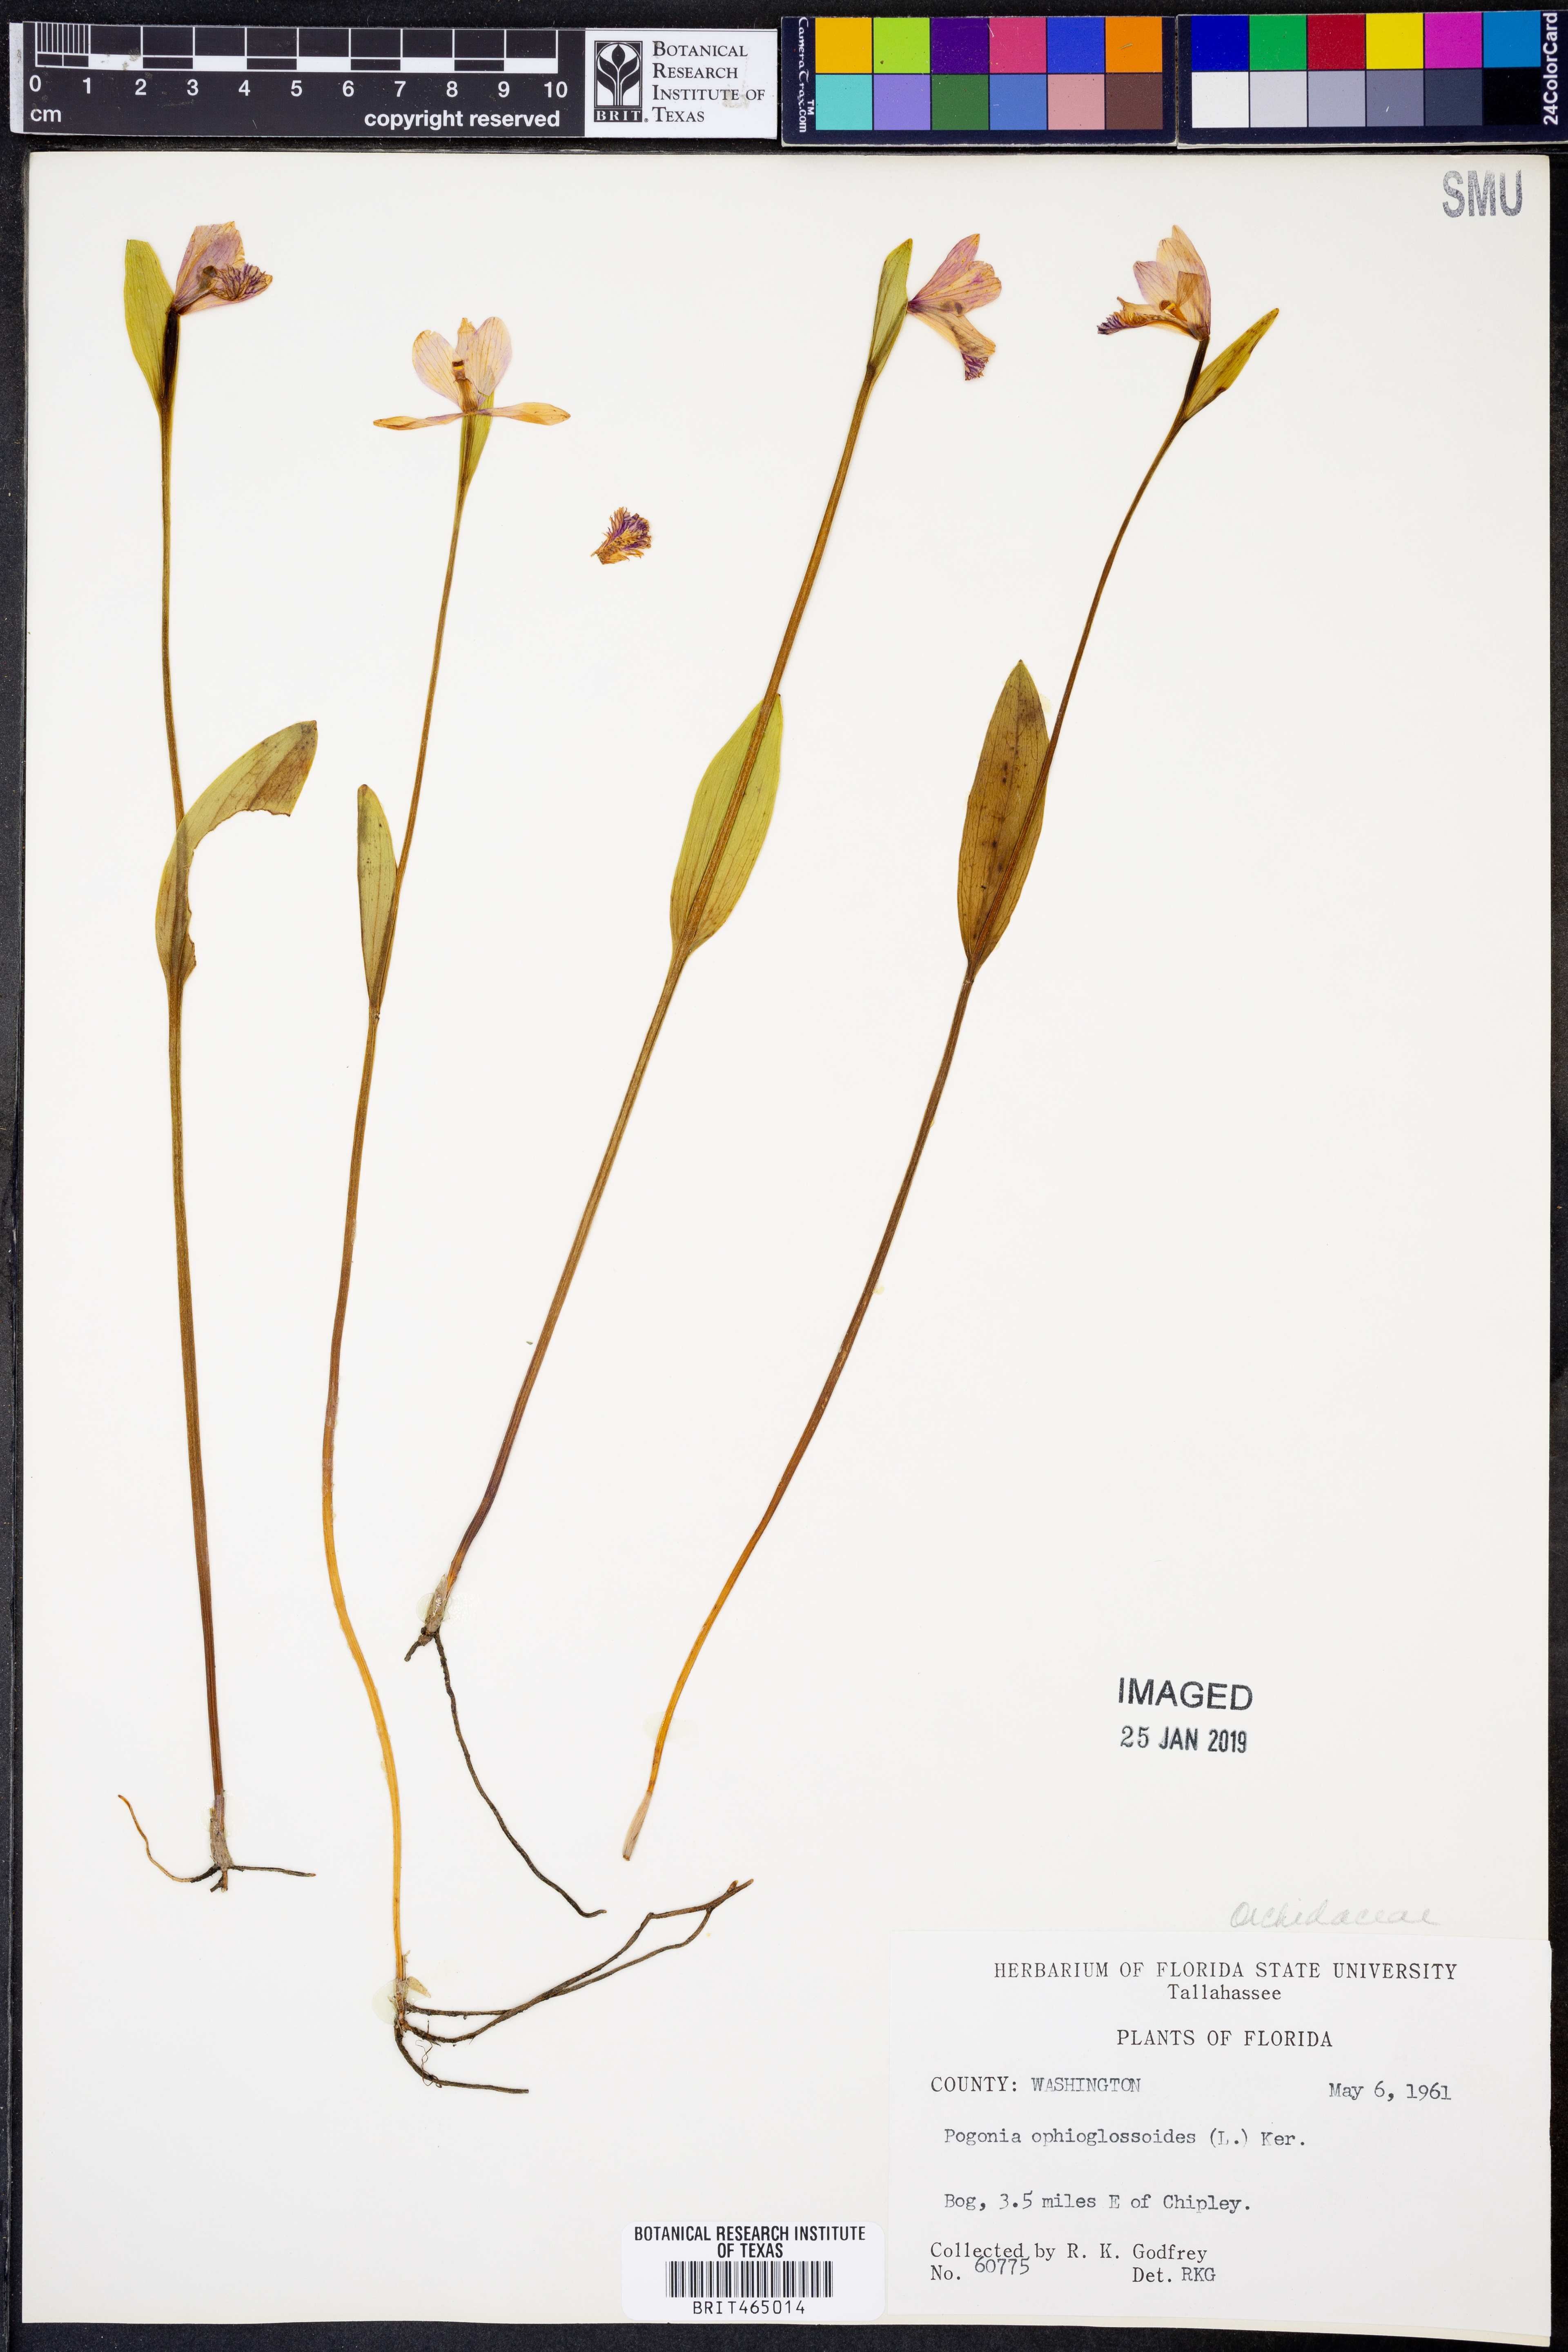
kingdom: Plantae
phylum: Tracheophyta
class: Liliopsida
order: Asparagales
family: Orchidaceae
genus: Pogonia
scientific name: Pogonia ophioglossoides
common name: Rose pogonia
